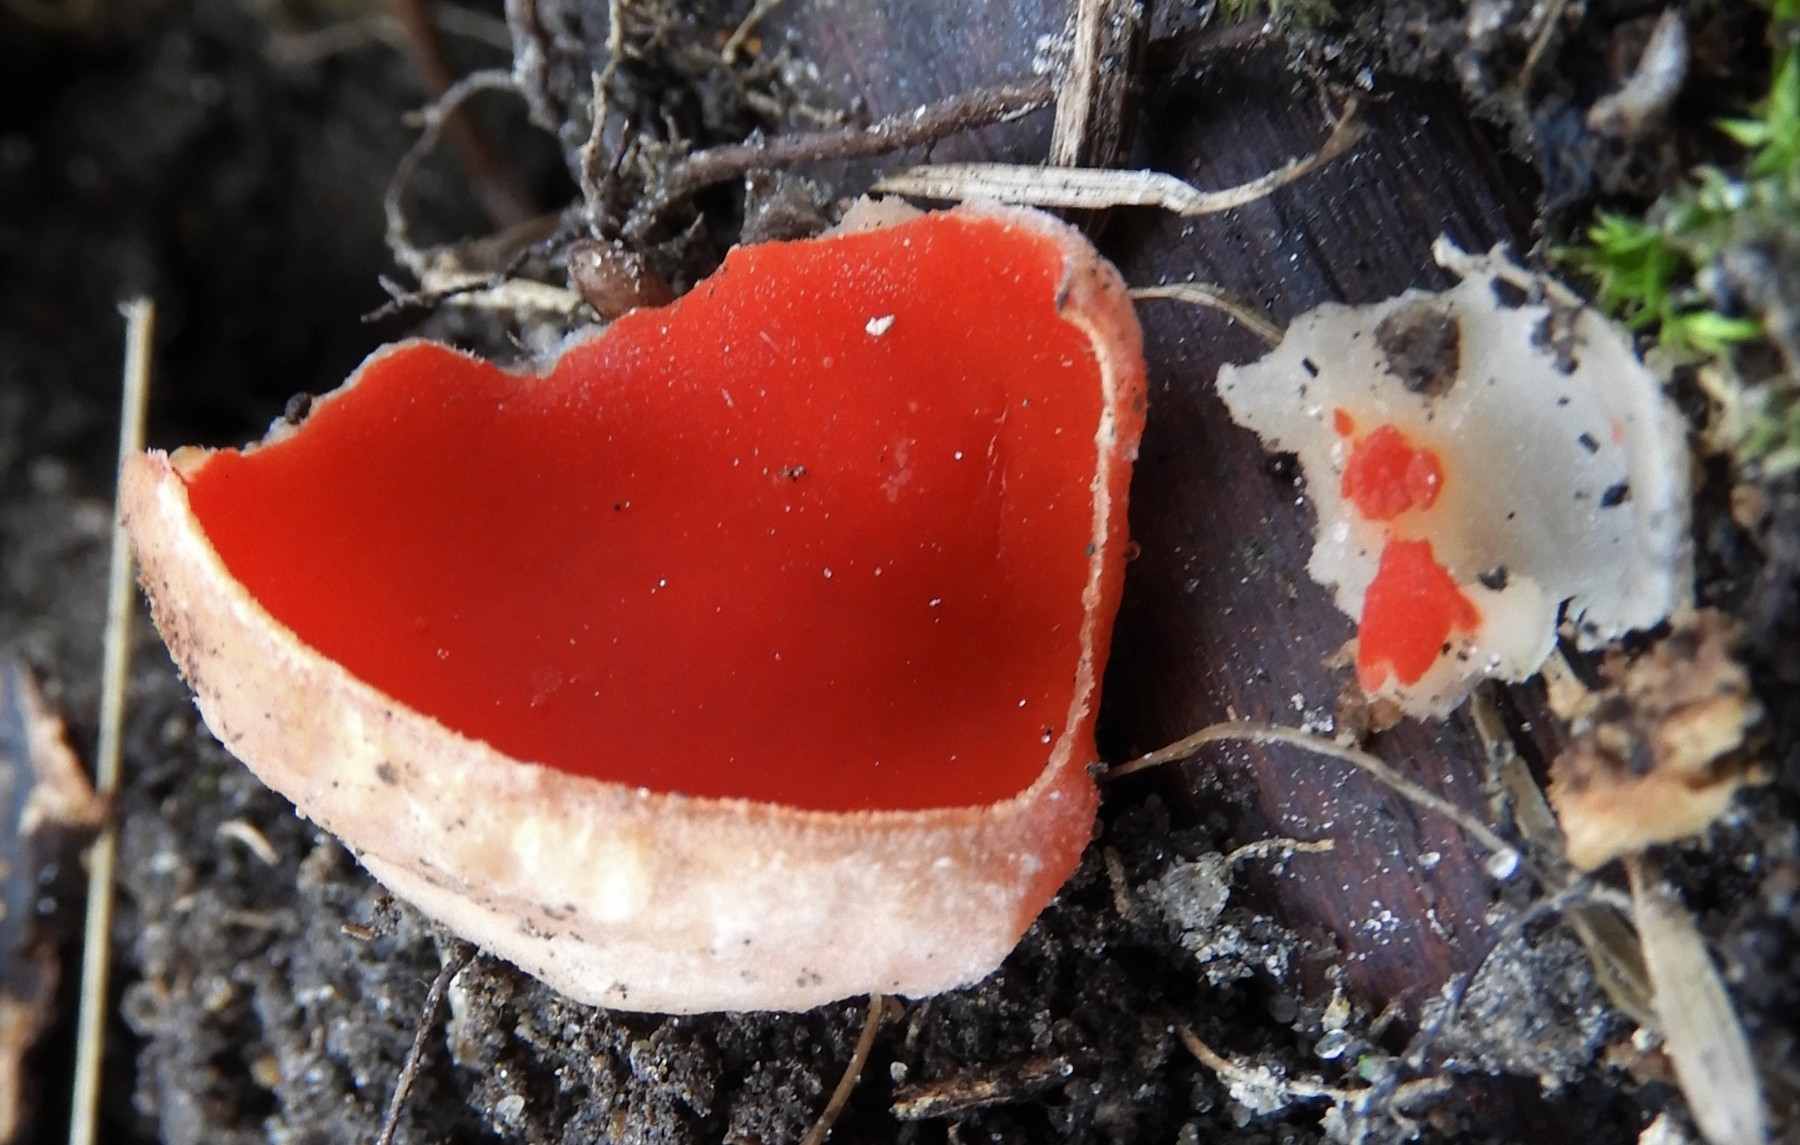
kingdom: Fungi
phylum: Ascomycota
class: Pezizomycetes
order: Pezizales
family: Sarcoscyphaceae
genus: Sarcoscypha
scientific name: Sarcoscypha austriaca
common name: krølhåret pragtbæger
